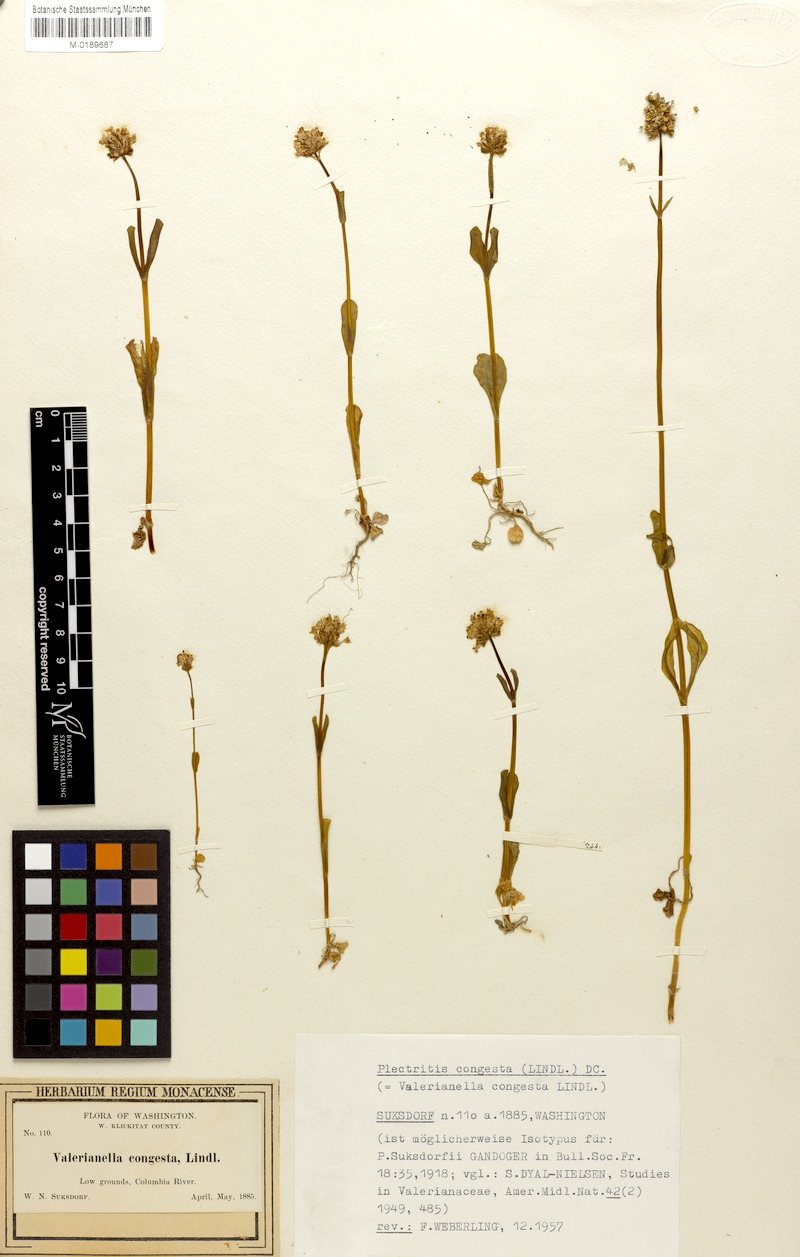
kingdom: Plantae
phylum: Tracheophyta
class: Magnoliopsida
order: Dipsacales
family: Caprifoliaceae
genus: Plectritis
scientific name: Plectritis congesta
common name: Pink plectritis
